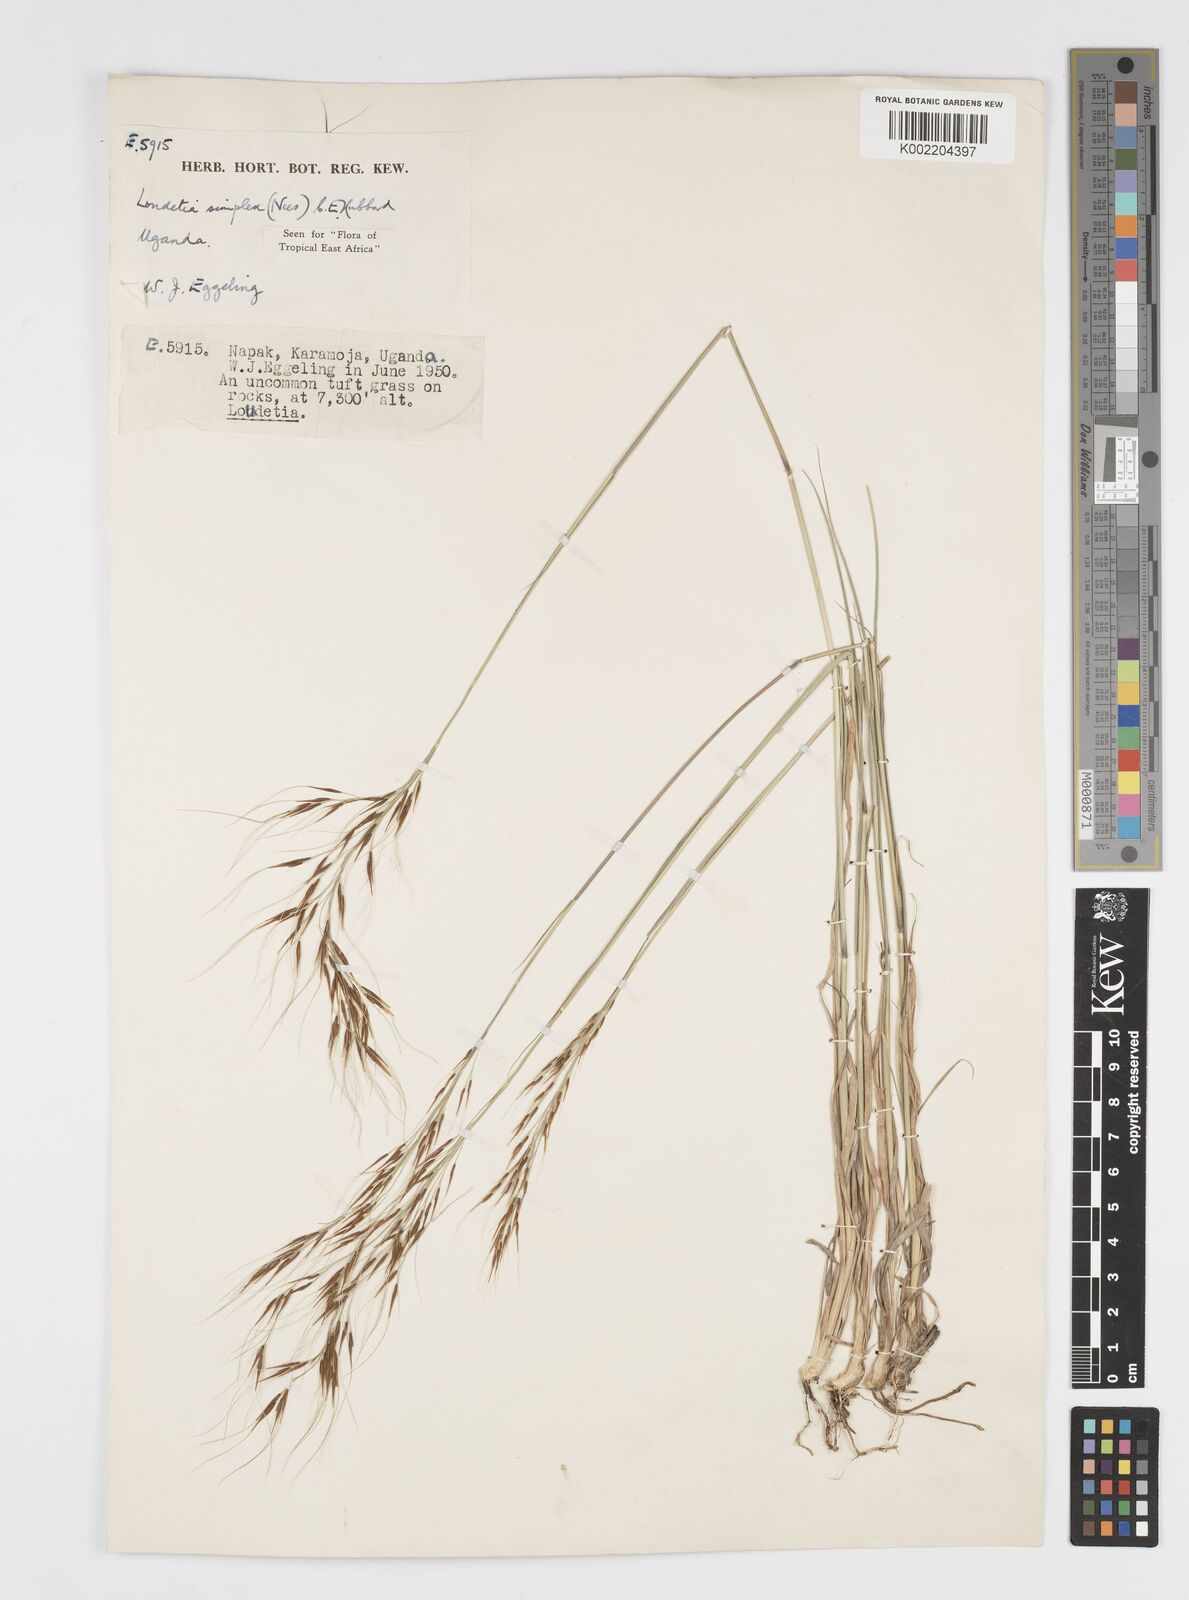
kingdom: Plantae
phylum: Tracheophyta
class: Liliopsida
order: Poales
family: Poaceae
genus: Loudetia
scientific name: Loudetia simplex
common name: Common russet grass
